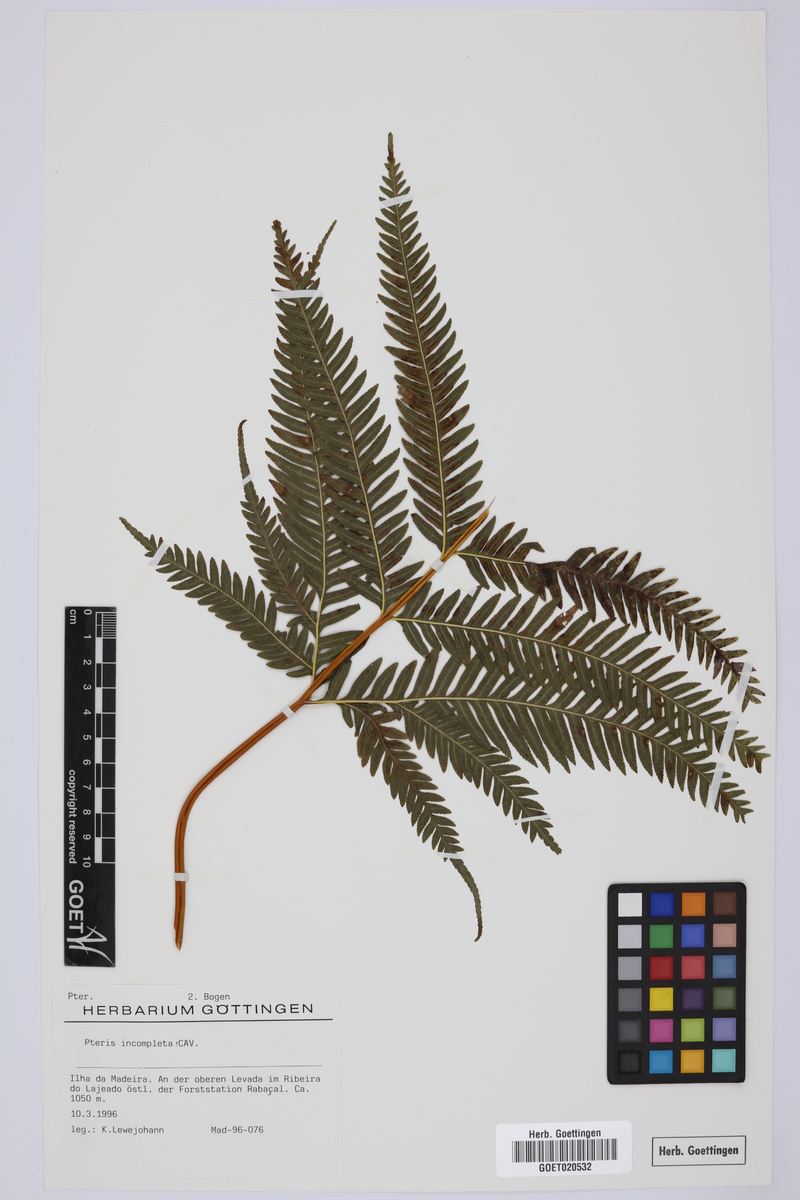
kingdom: Plantae
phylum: Tracheophyta
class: Polypodiopsida
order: Polypodiales
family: Pteridaceae
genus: Pteris
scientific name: Pteris incompleta
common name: Laurisilva brake
